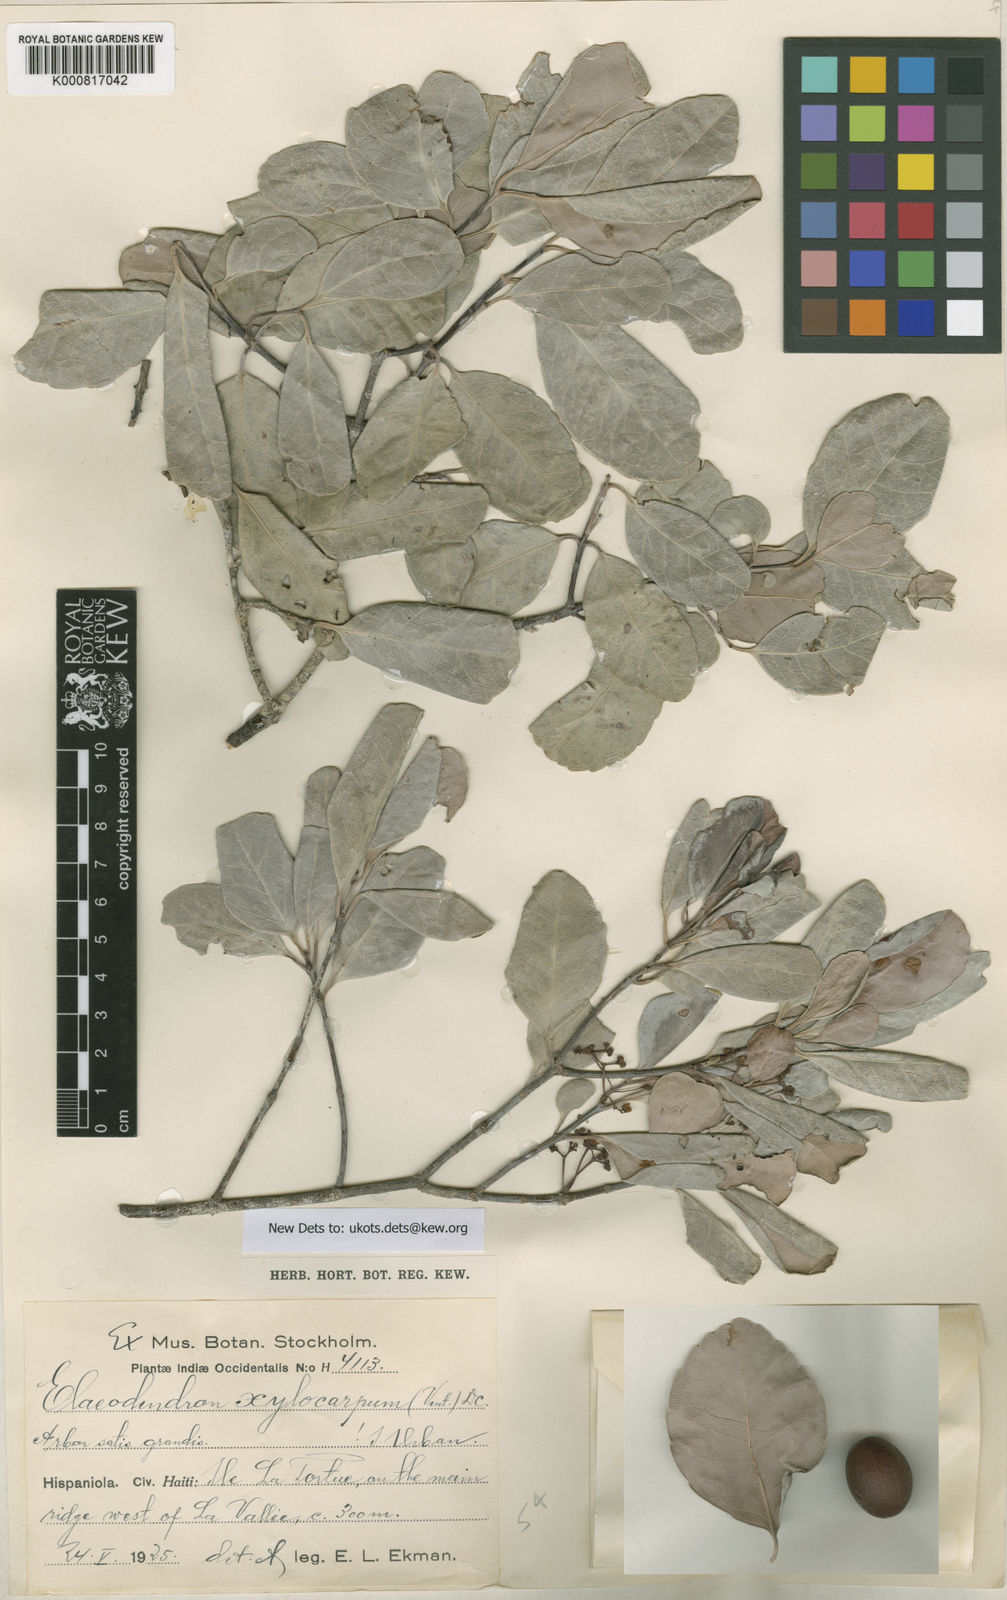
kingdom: Plantae
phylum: Tracheophyta
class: Magnoliopsida
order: Celastrales
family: Celastraceae
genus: Elaeodendron
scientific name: Elaeodendron xylocarpum
